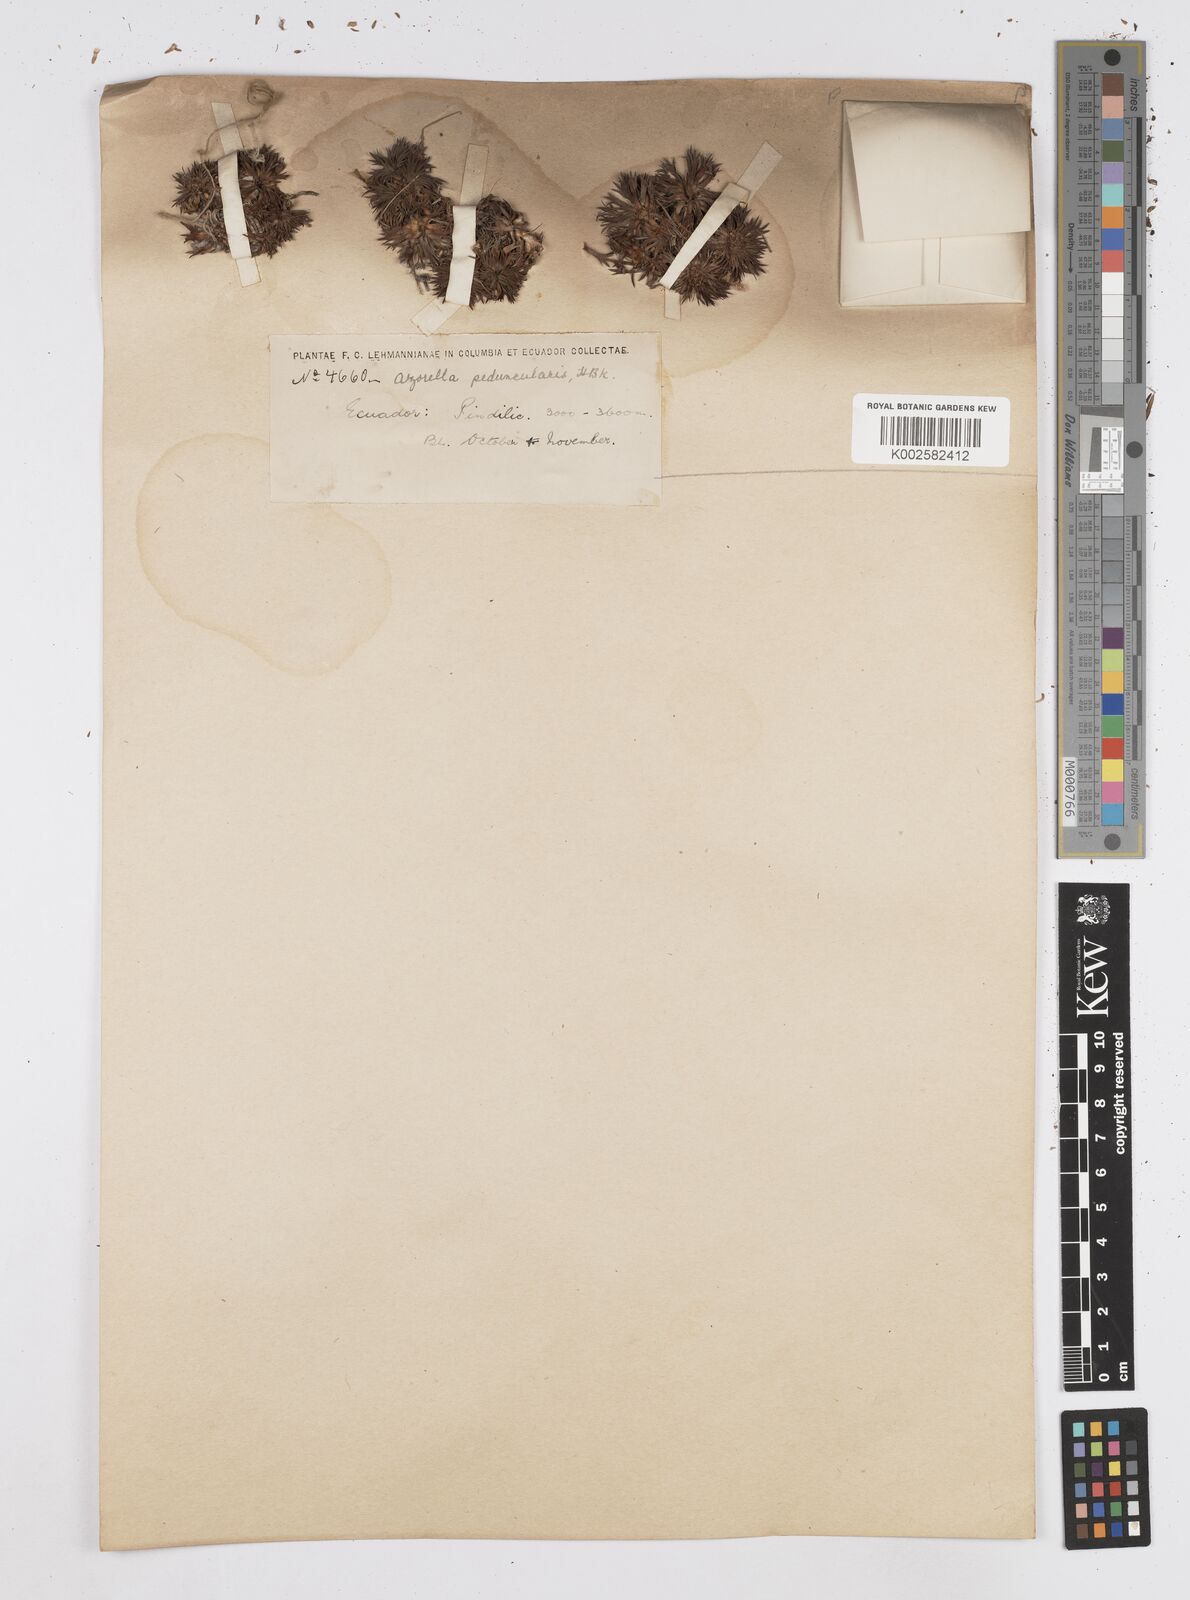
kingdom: Plantae
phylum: Tracheophyta
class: Magnoliopsida
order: Apiales
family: Apiaceae
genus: Azorella
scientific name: Azorella pedunculata
